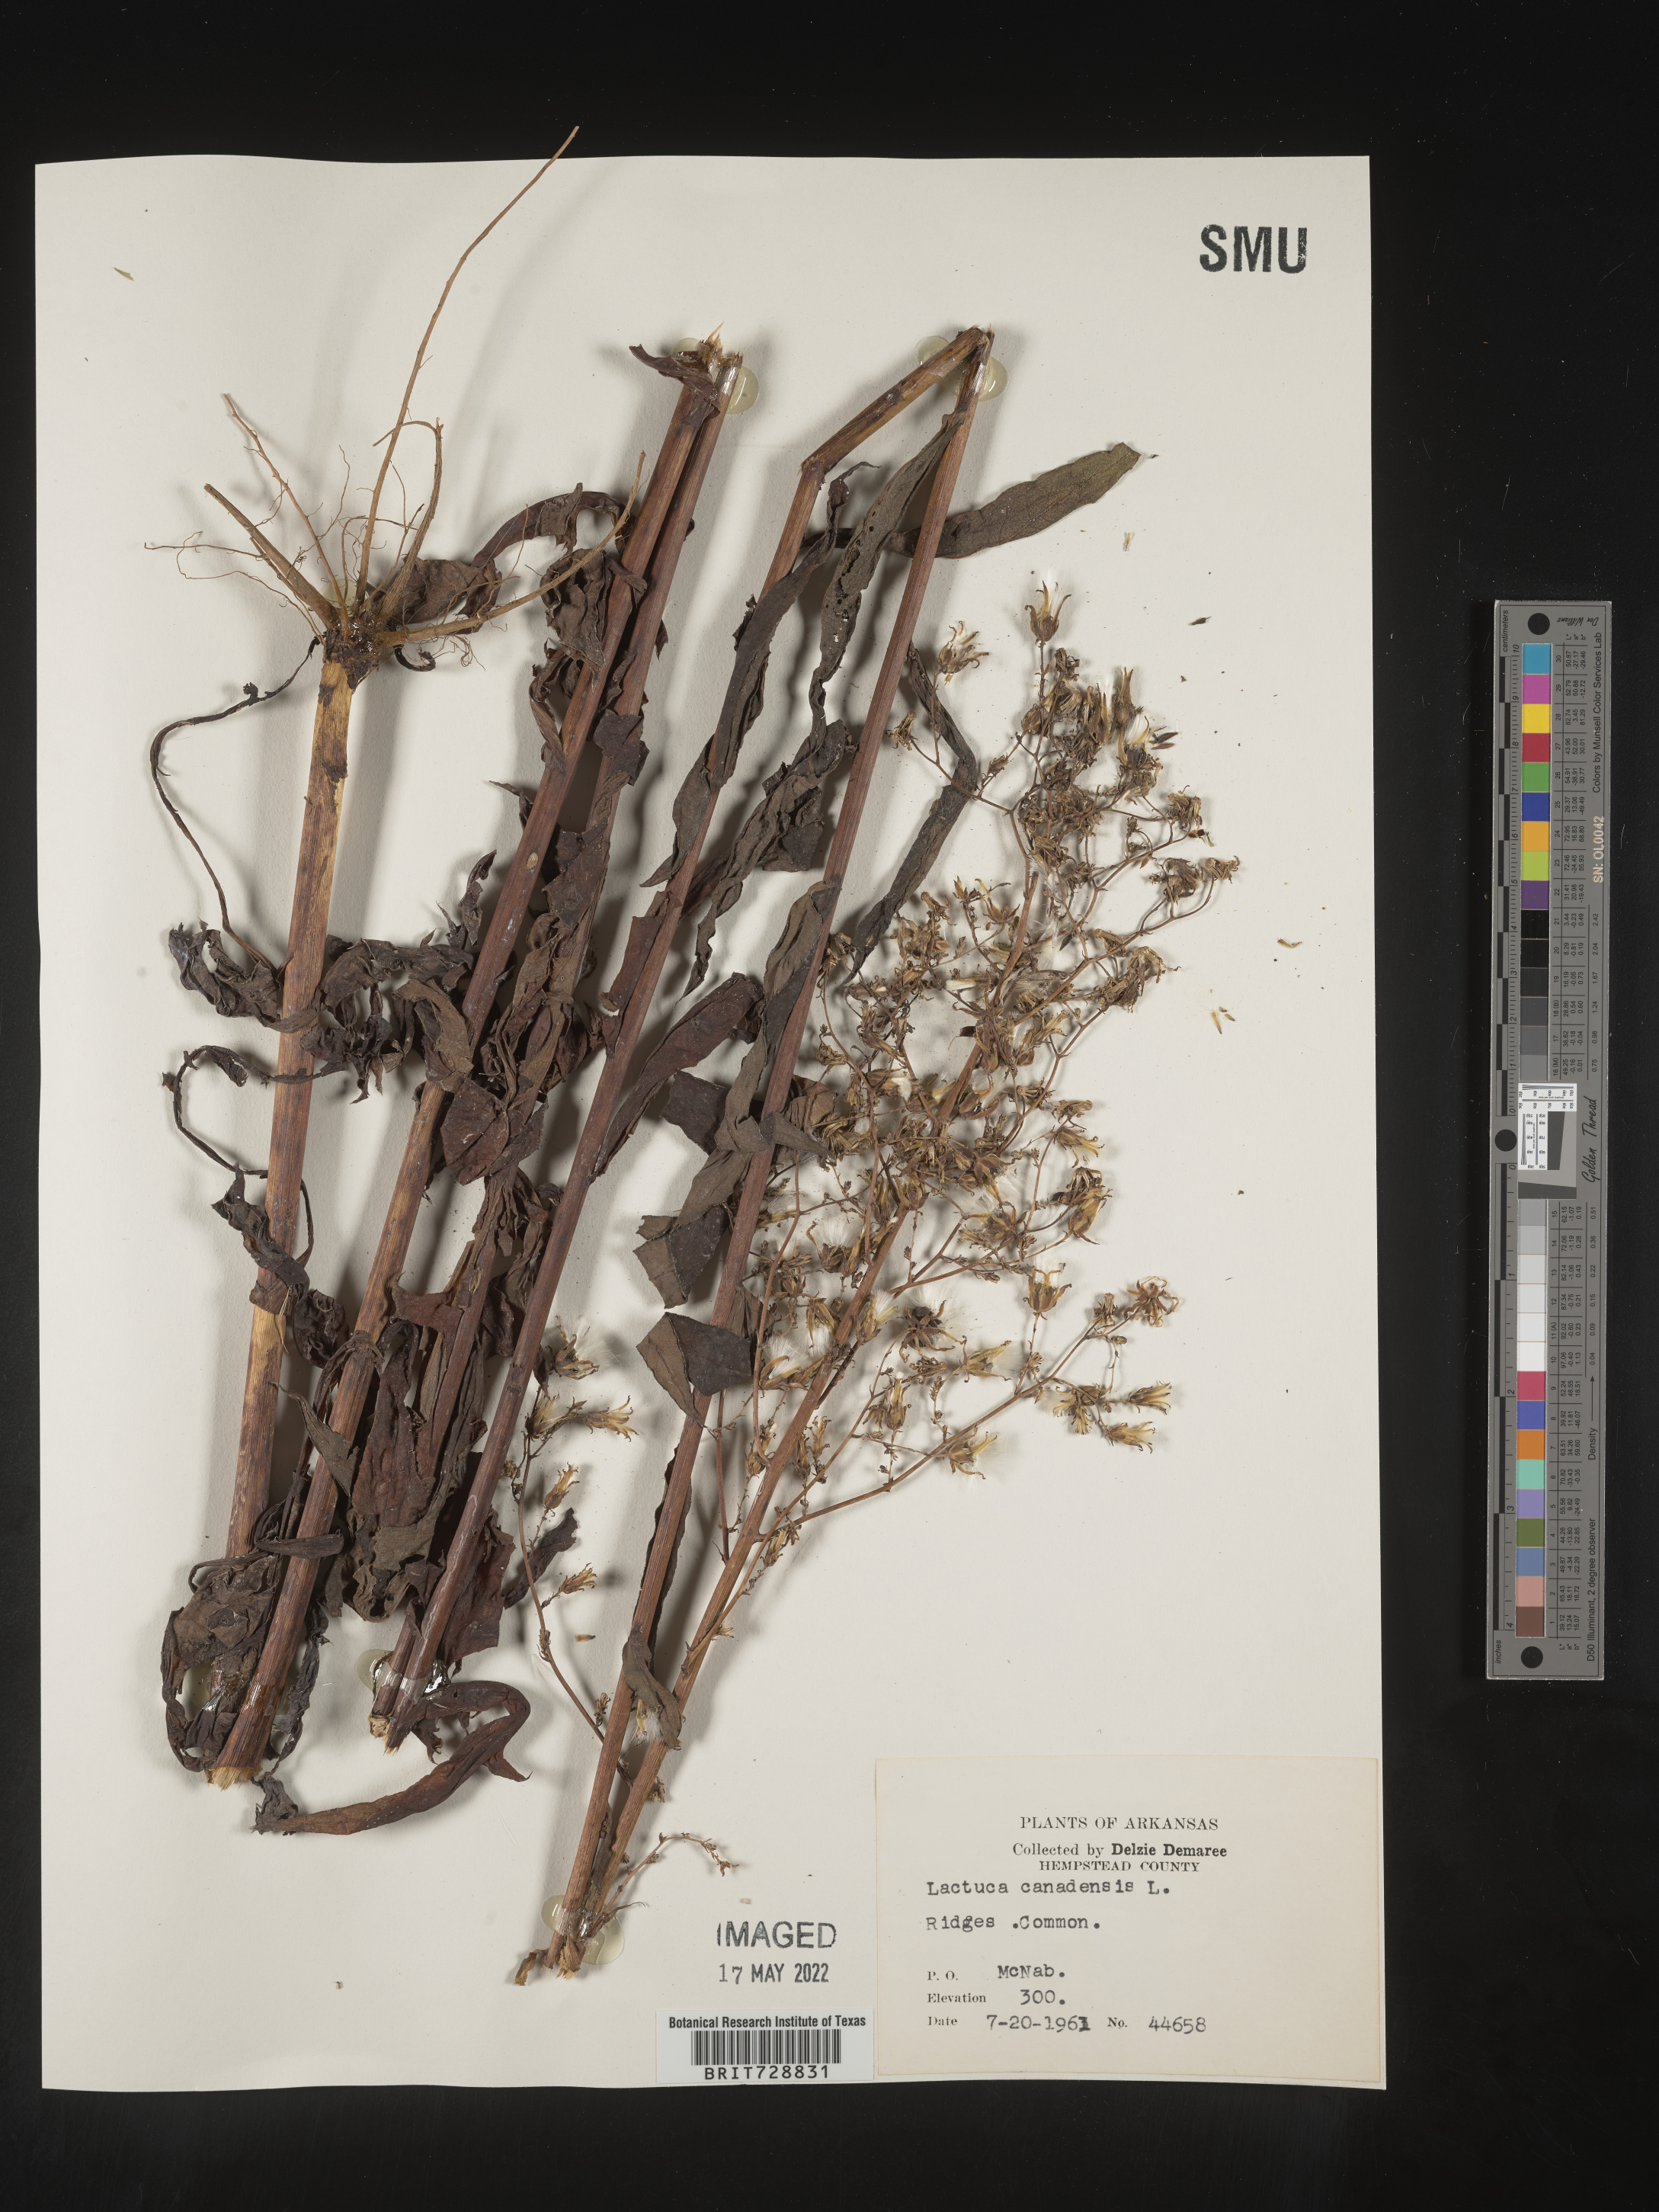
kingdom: Plantae
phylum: Tracheophyta
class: Magnoliopsida
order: Asterales
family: Asteraceae
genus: Lactuca
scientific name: Lactuca canadensis
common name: Canada lettuce
